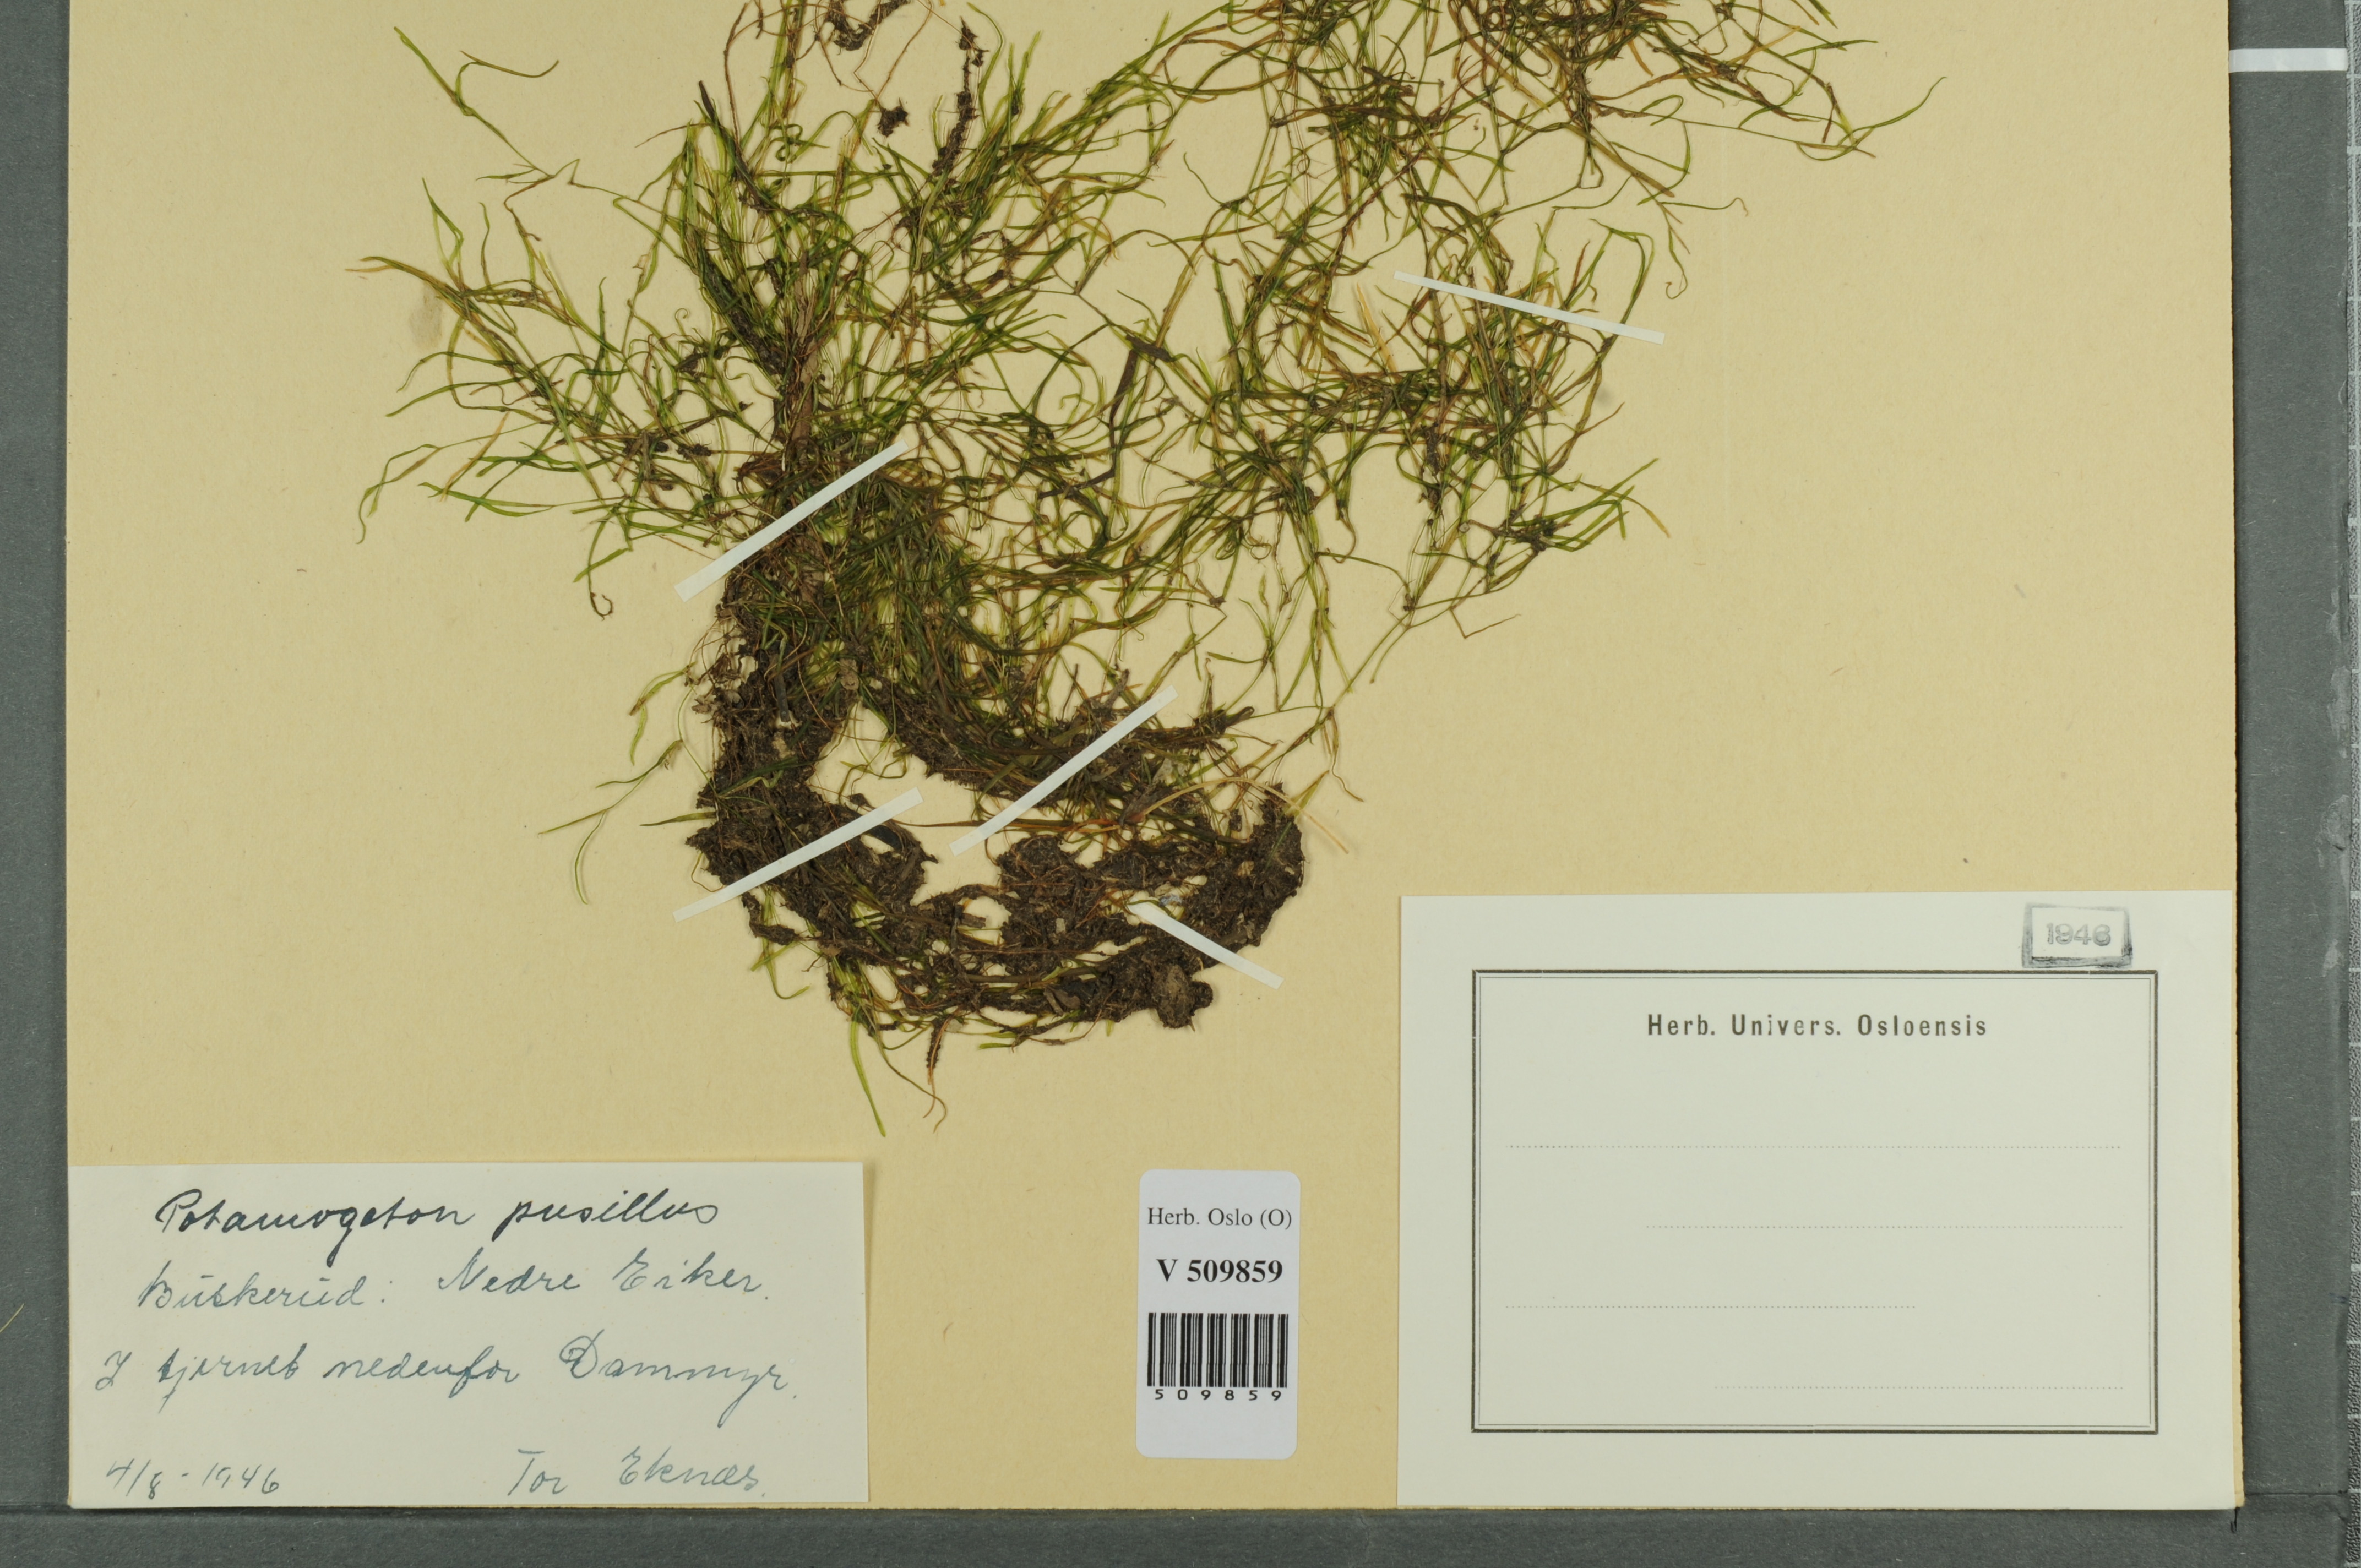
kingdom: Plantae
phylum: Tracheophyta
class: Liliopsida
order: Alismatales
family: Potamogetonaceae
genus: Potamogeton
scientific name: Potamogeton berchtoldii
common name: Small pondweed
